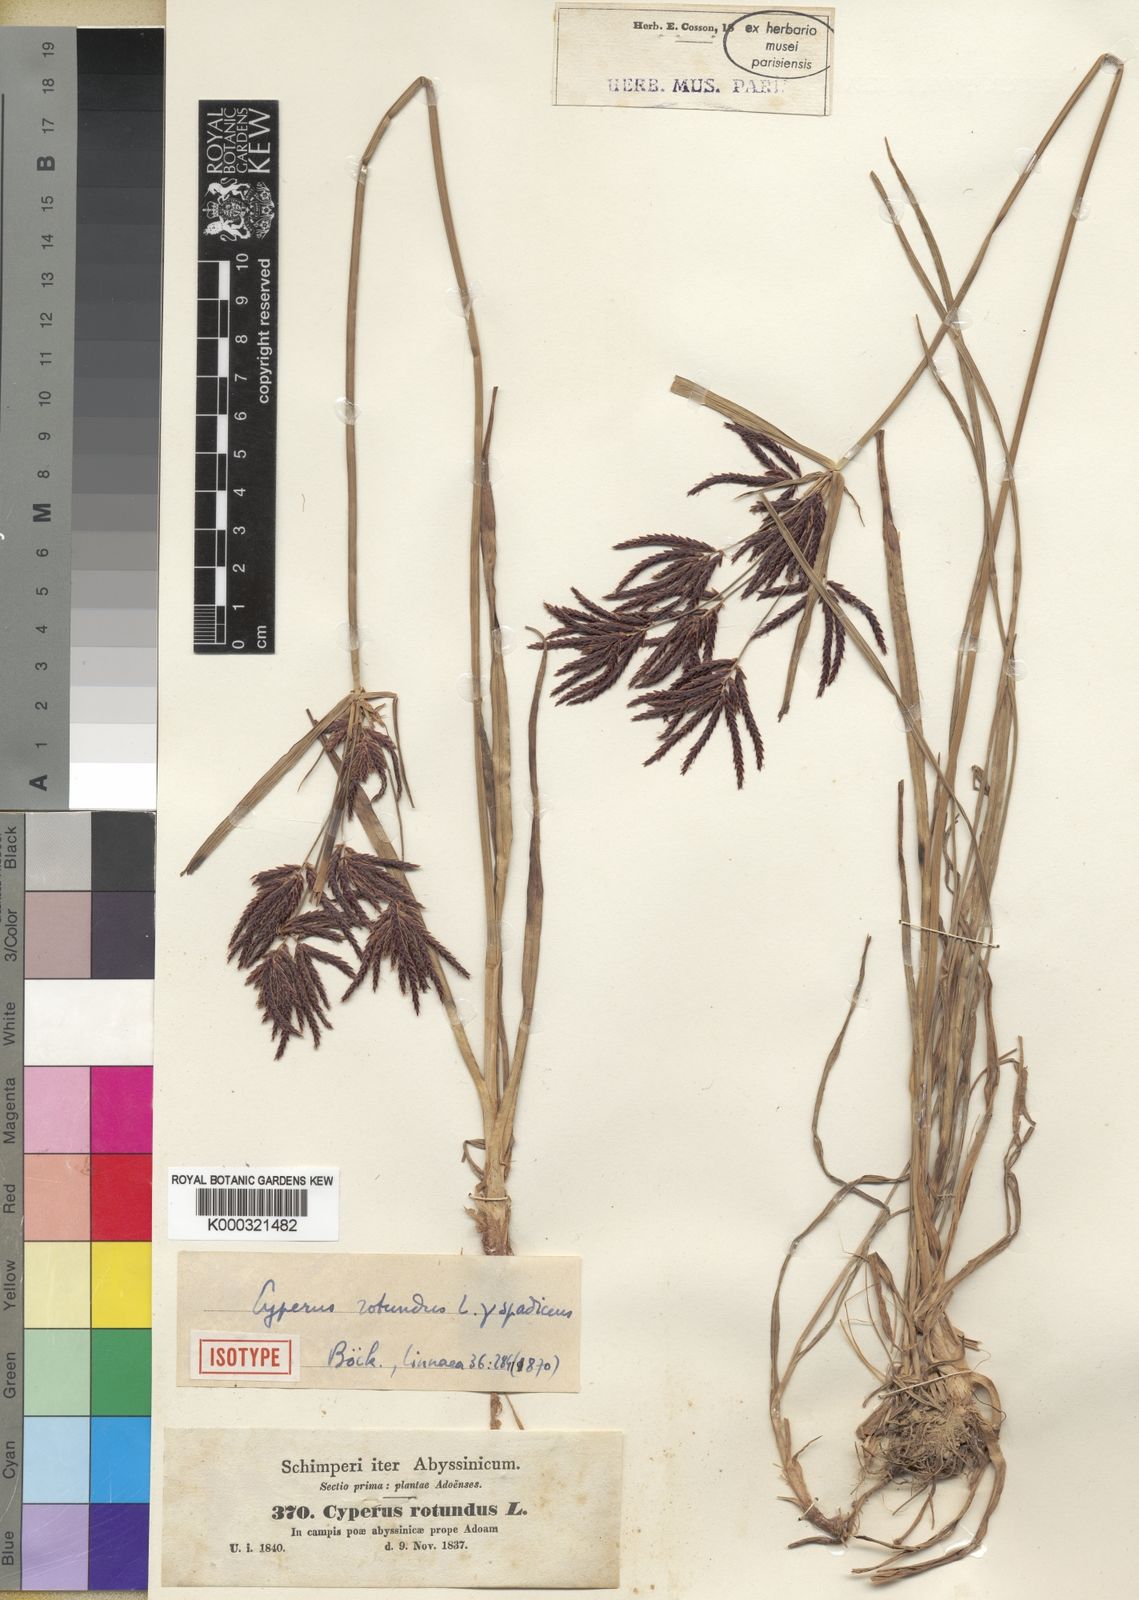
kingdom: Plantae
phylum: Tracheophyta
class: Liliopsida
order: Poales
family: Cyperaceae
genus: Cyperus
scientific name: Cyperus rotundus
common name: Nutgrass
